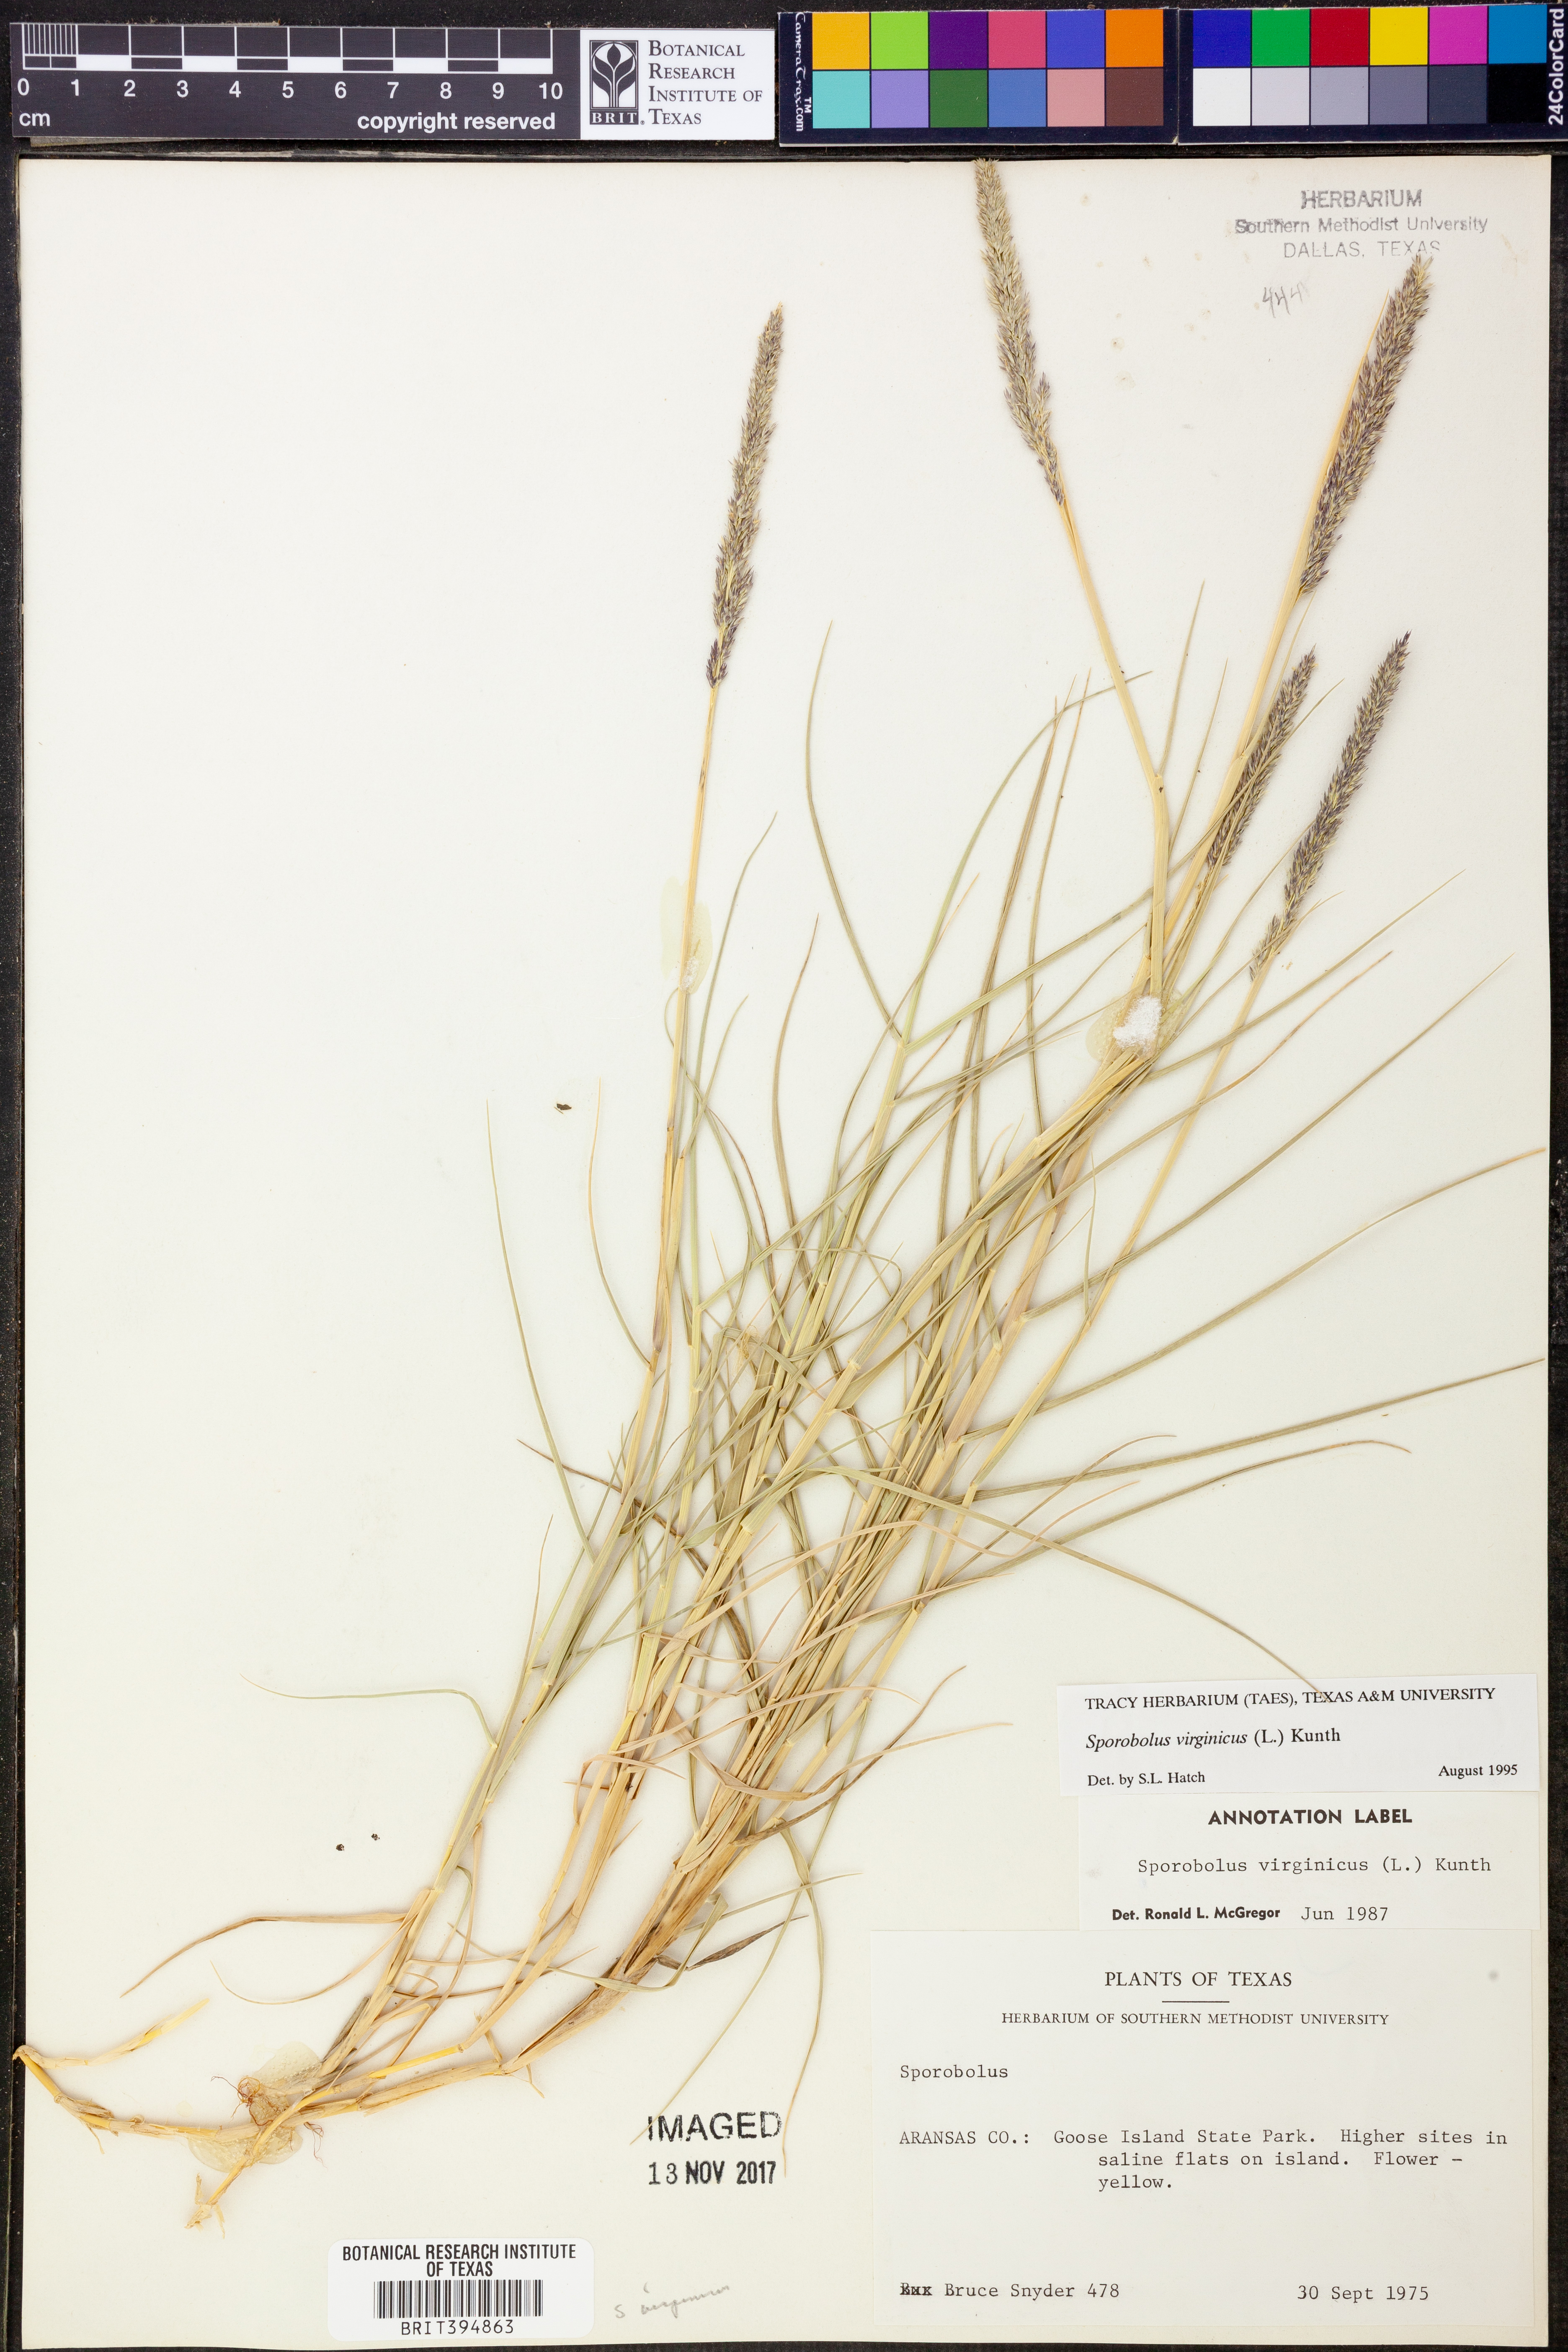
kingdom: Plantae
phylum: Tracheophyta
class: Liliopsida
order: Poales
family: Poaceae
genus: Sporobolus
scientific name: Sporobolus virginicus
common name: Beach dropseed
